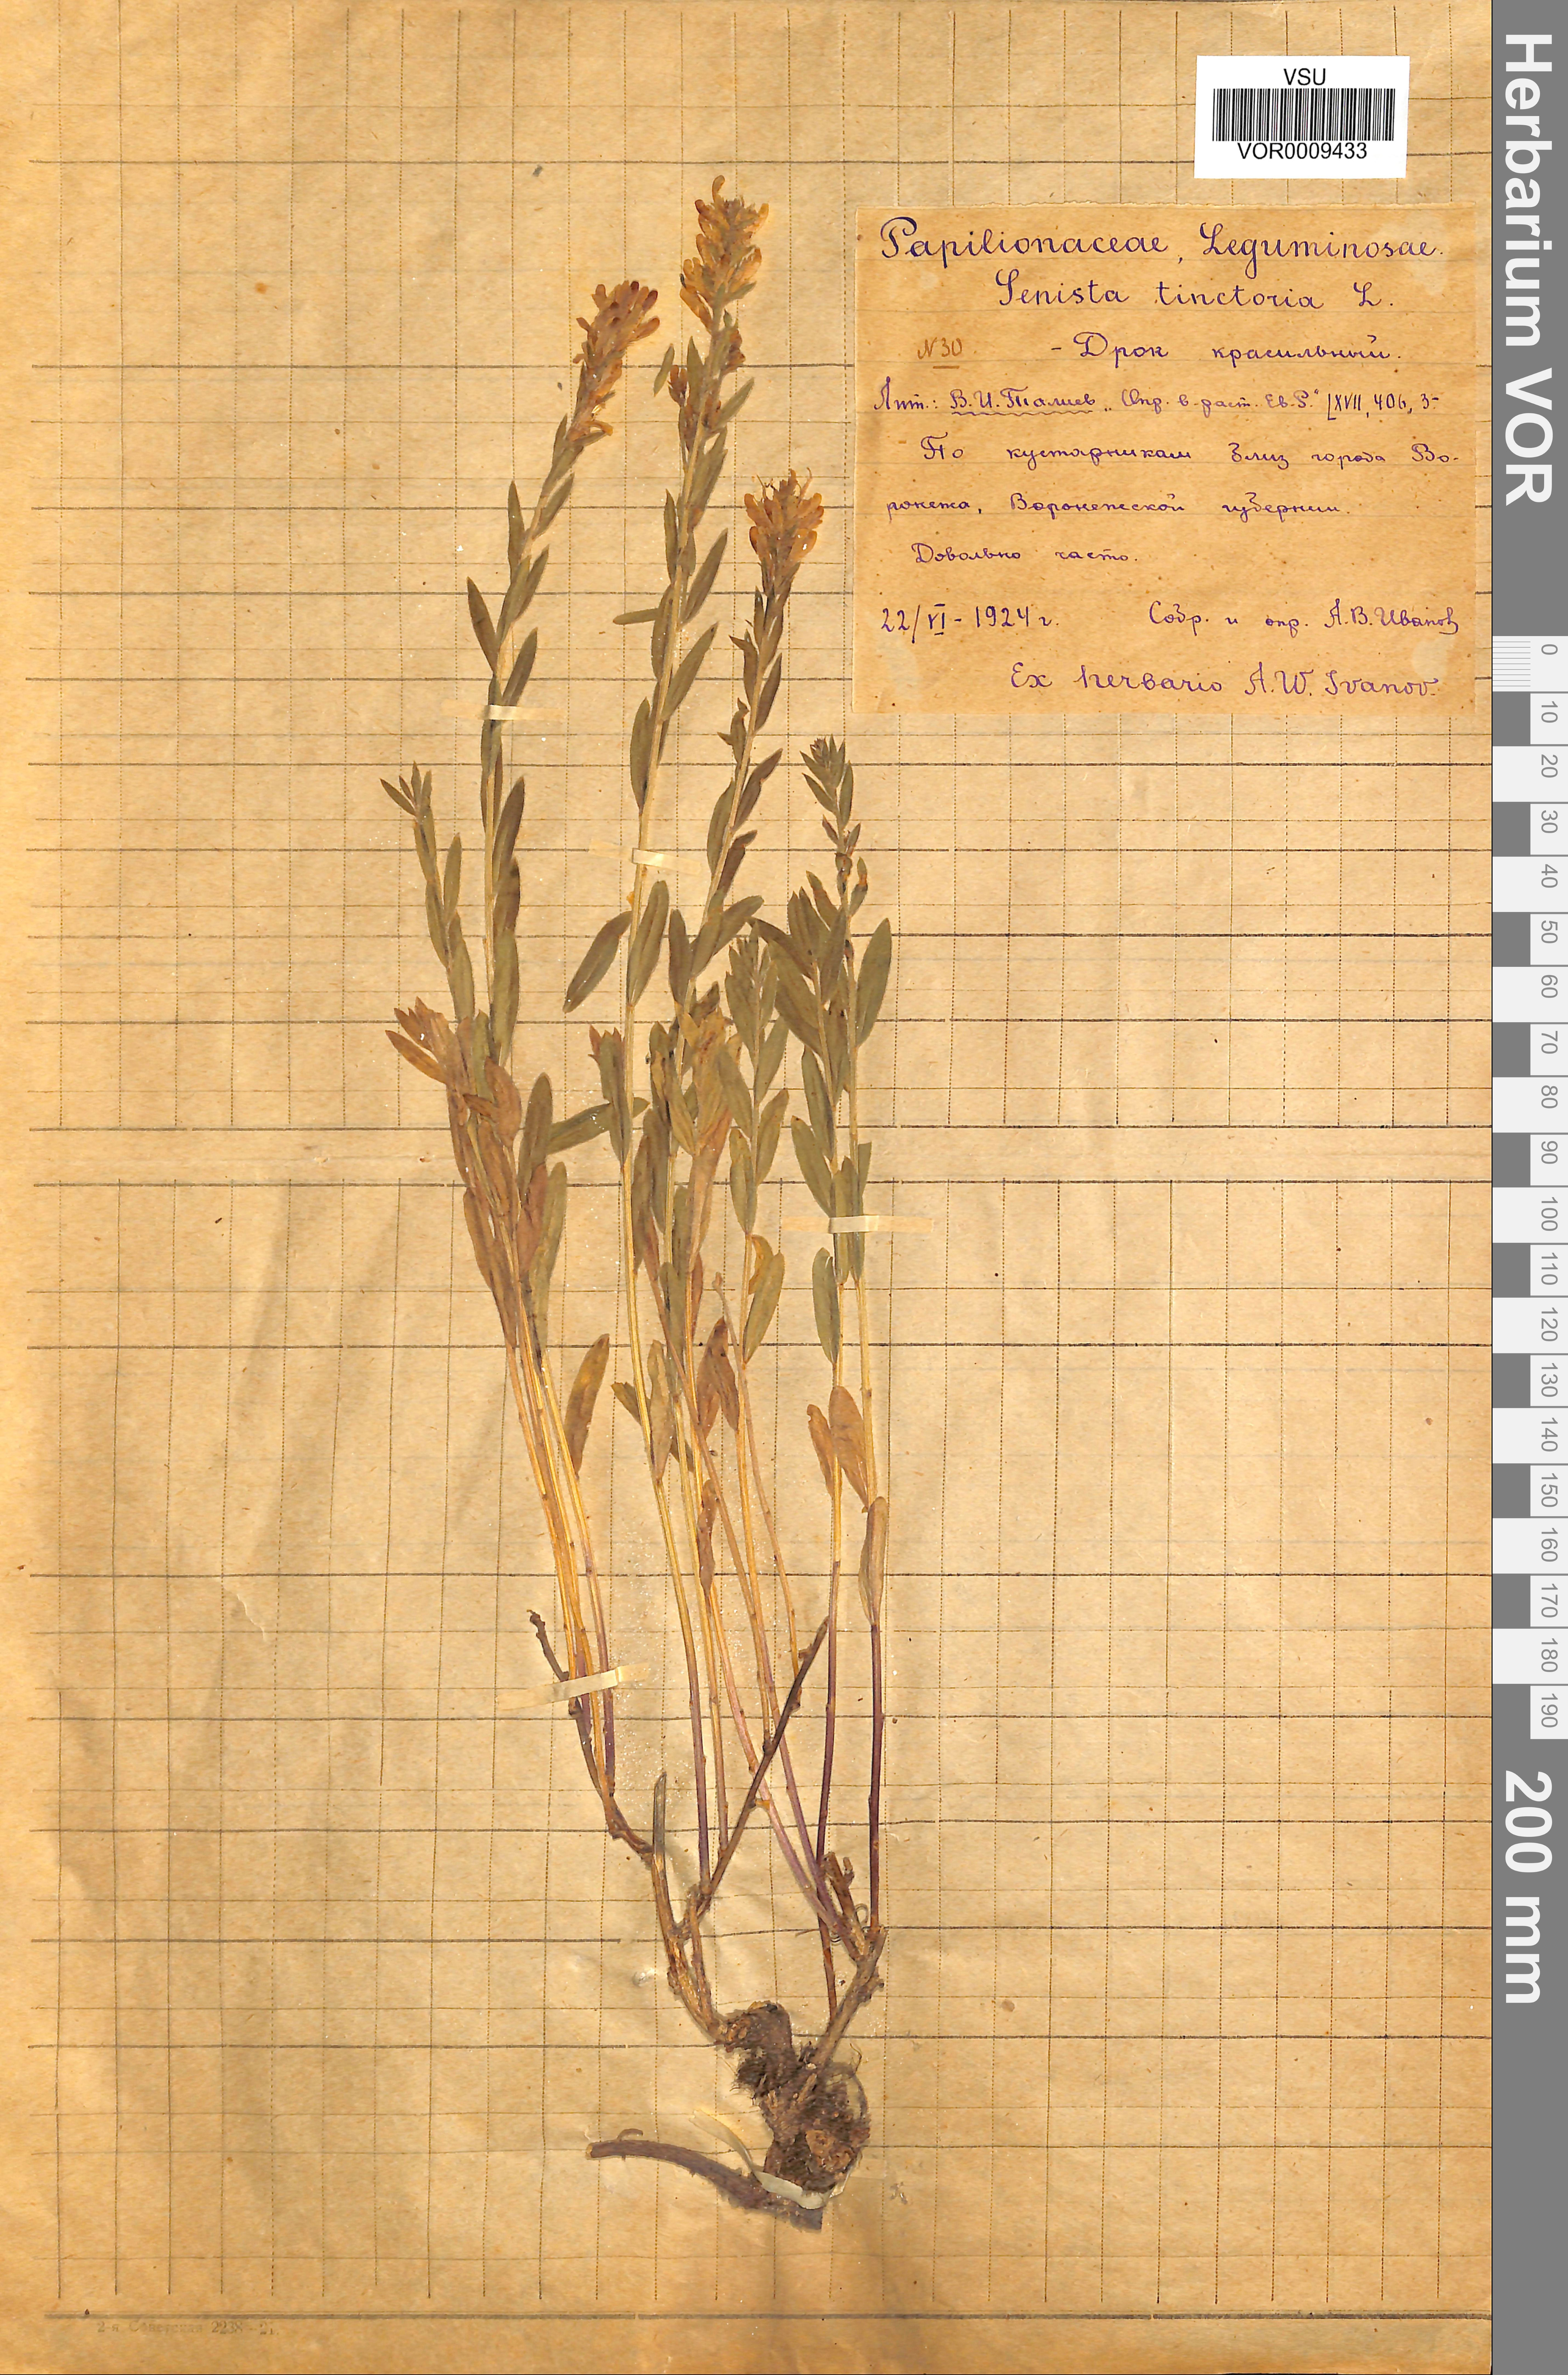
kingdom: Plantae
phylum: Tracheophyta
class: Magnoliopsida
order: Fabales
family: Fabaceae
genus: Genista
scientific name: Genista tinctoria
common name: Dyer's greenweed
